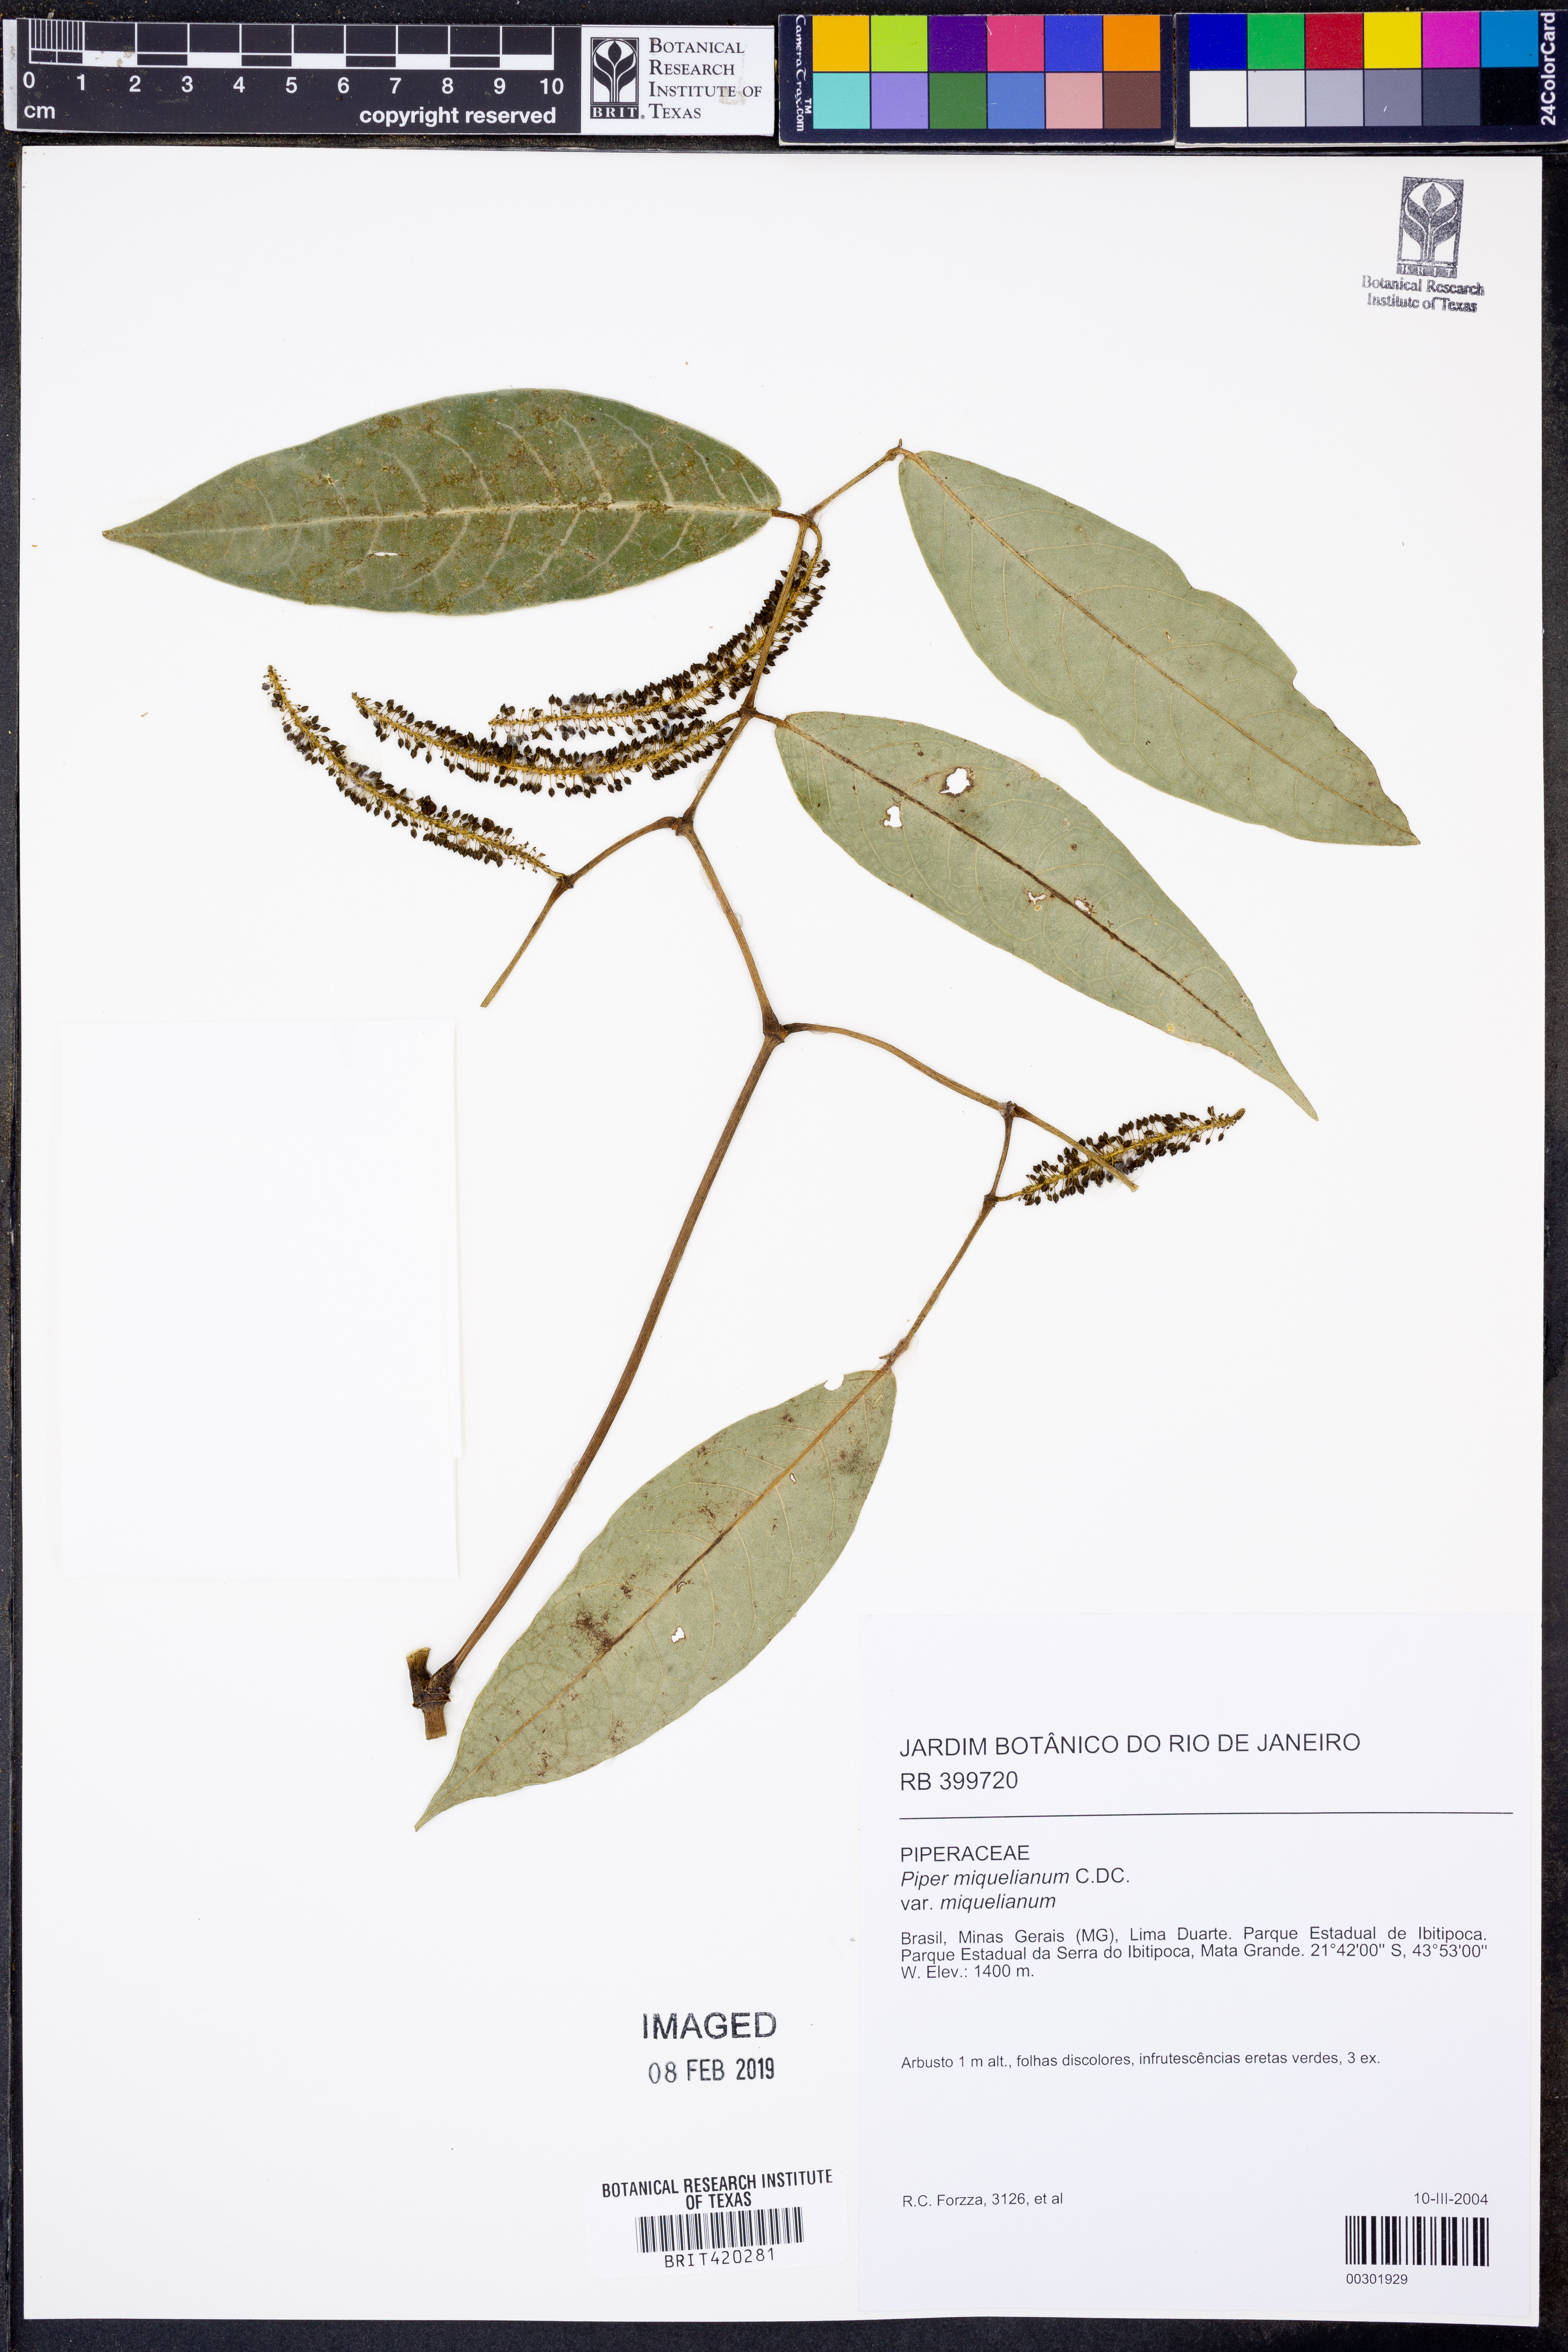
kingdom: Plantae
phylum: Tracheophyta
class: Magnoliopsida
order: Piperales
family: Piperaceae
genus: Piper
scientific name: Piper miquelianum
